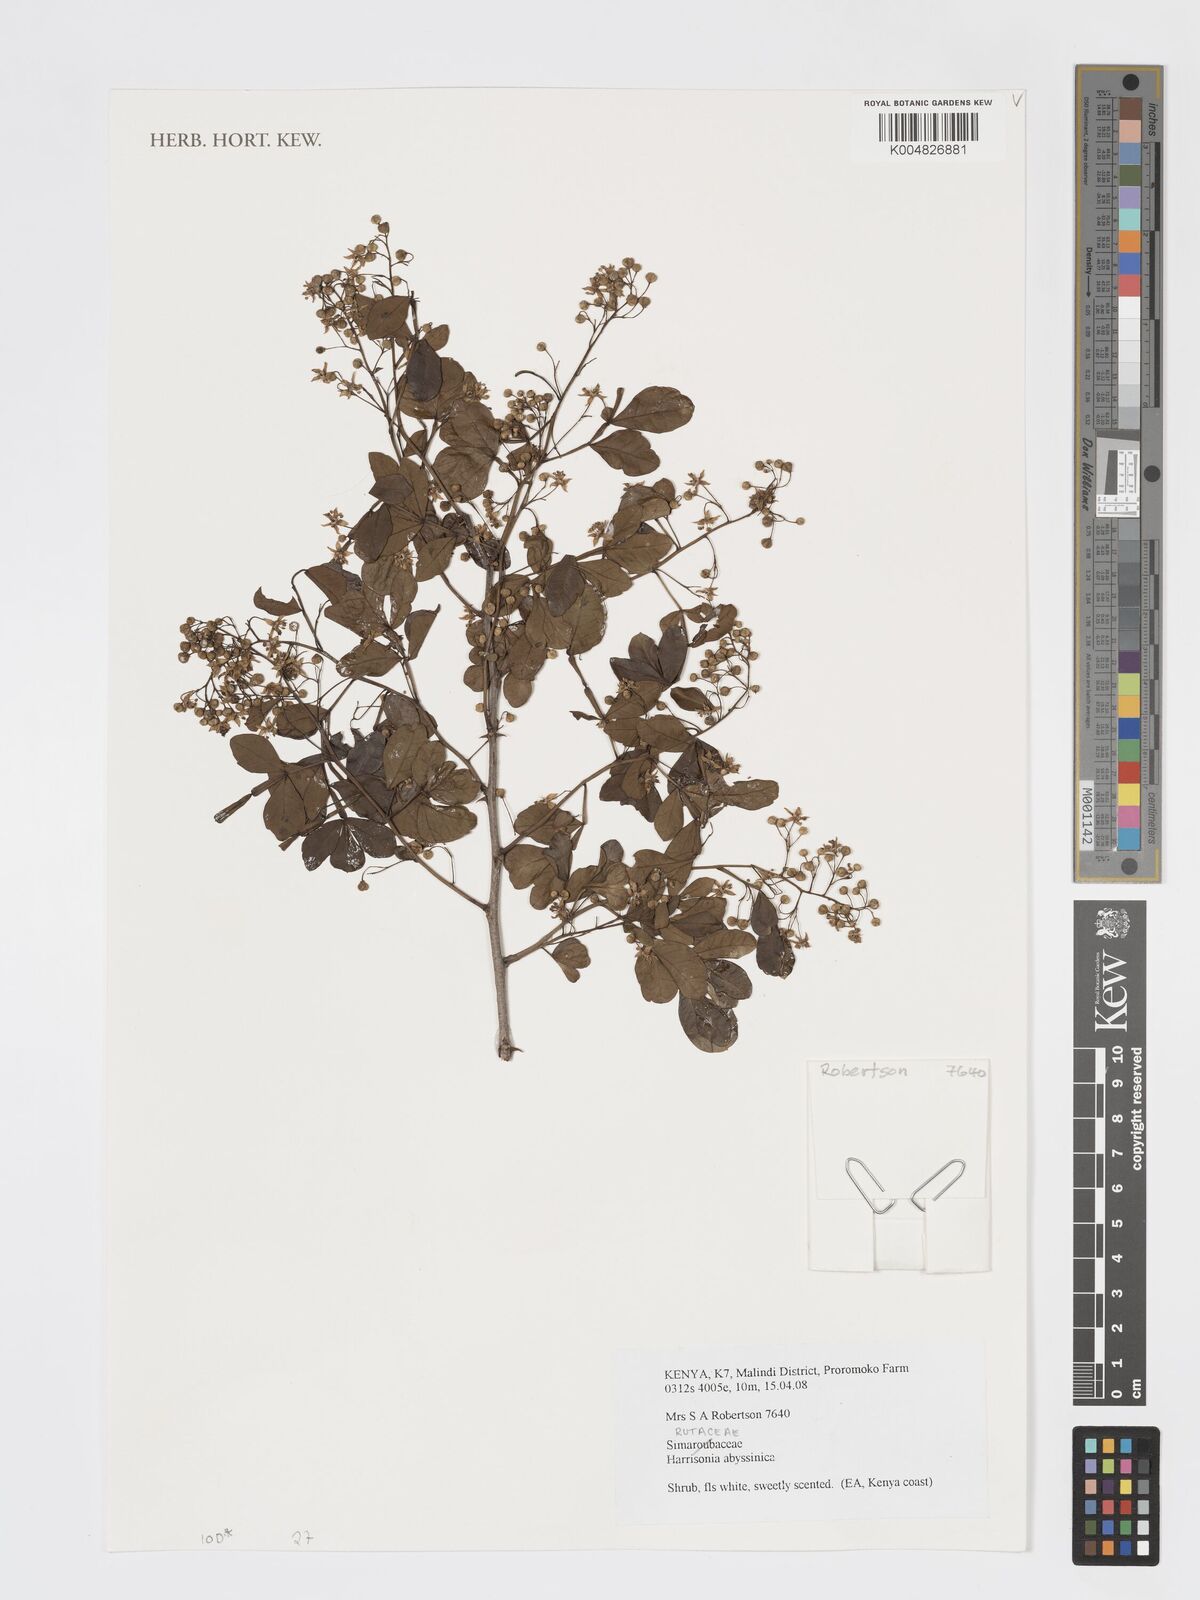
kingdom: Plantae
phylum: Tracheophyta
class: Magnoliopsida
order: Sapindales
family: Rutaceae
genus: Harrisonia
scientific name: Harrisonia abyssinica
